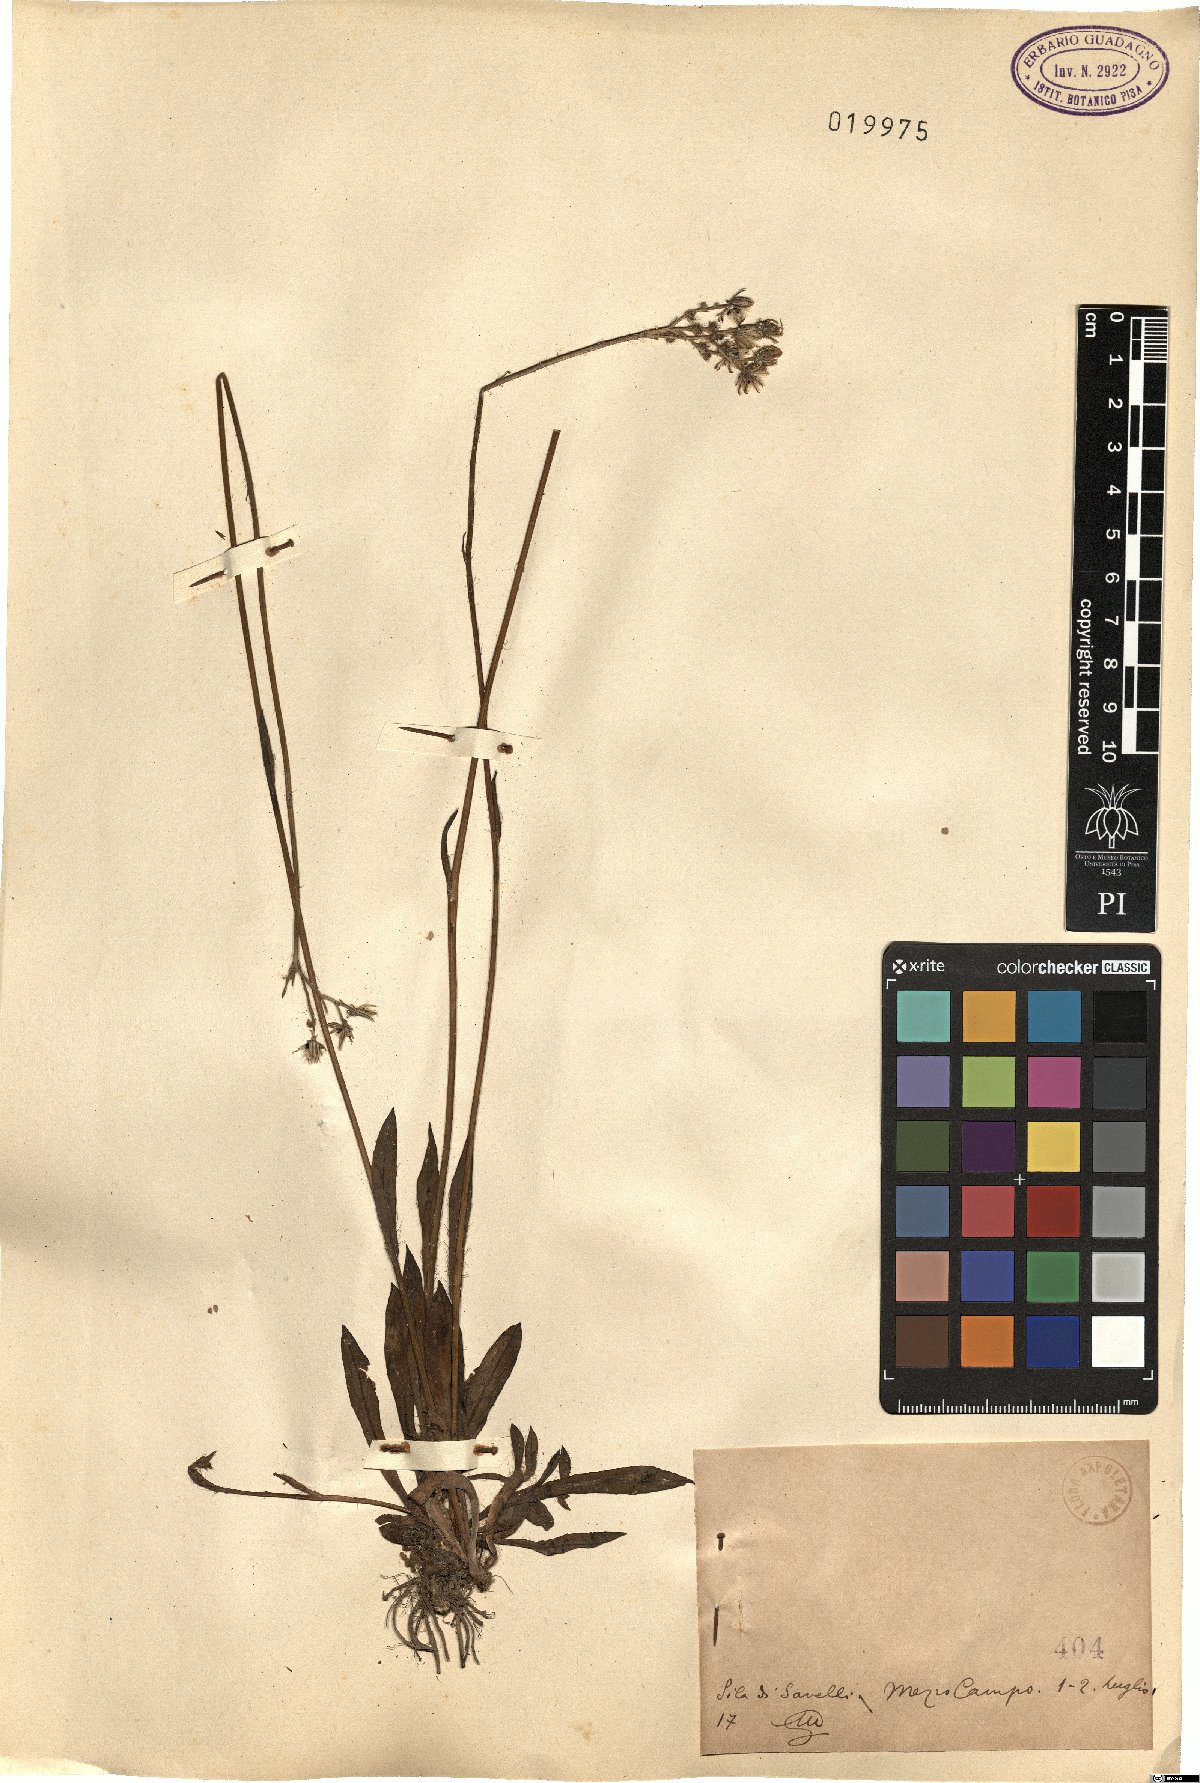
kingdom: Plantae
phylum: Tracheophyta
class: Magnoliopsida
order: Asterales
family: Asteraceae
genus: Hieracium
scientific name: Hieracium
